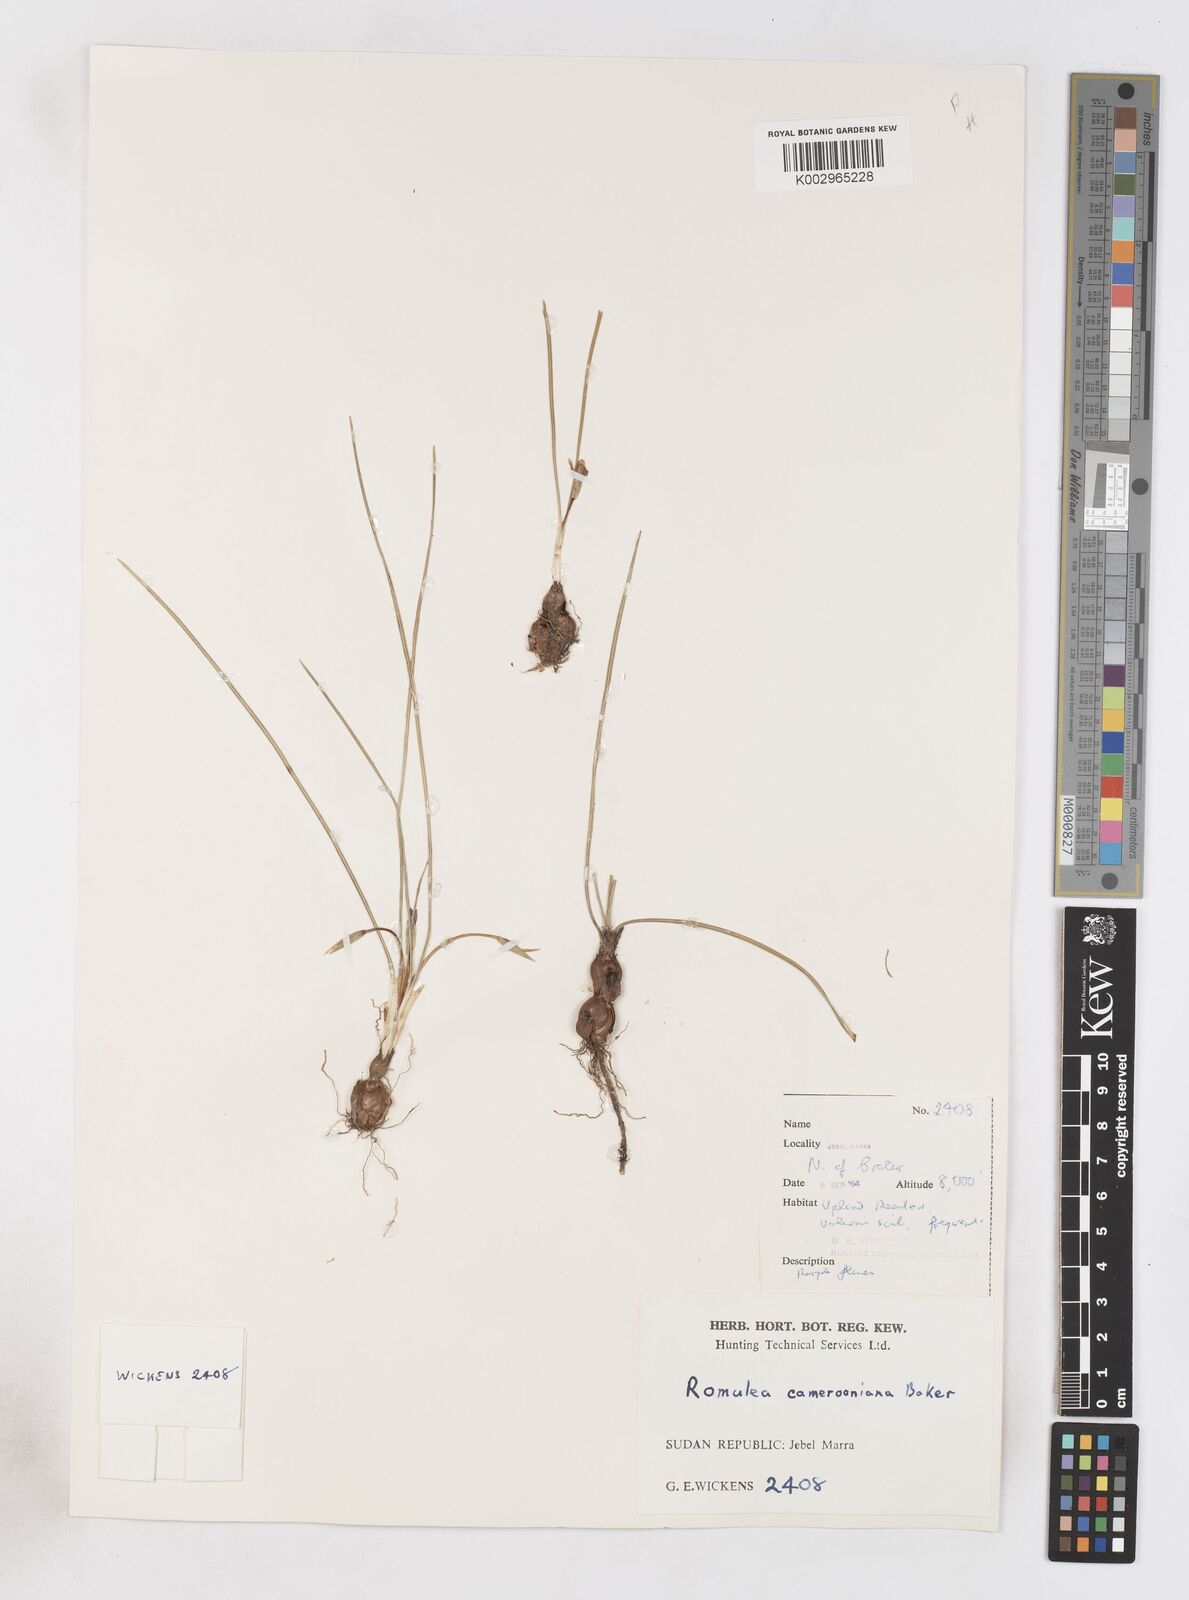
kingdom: Plantae
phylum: Tracheophyta
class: Liliopsida
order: Asparagales
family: Iridaceae
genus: Romulea
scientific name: Romulea fischeri
